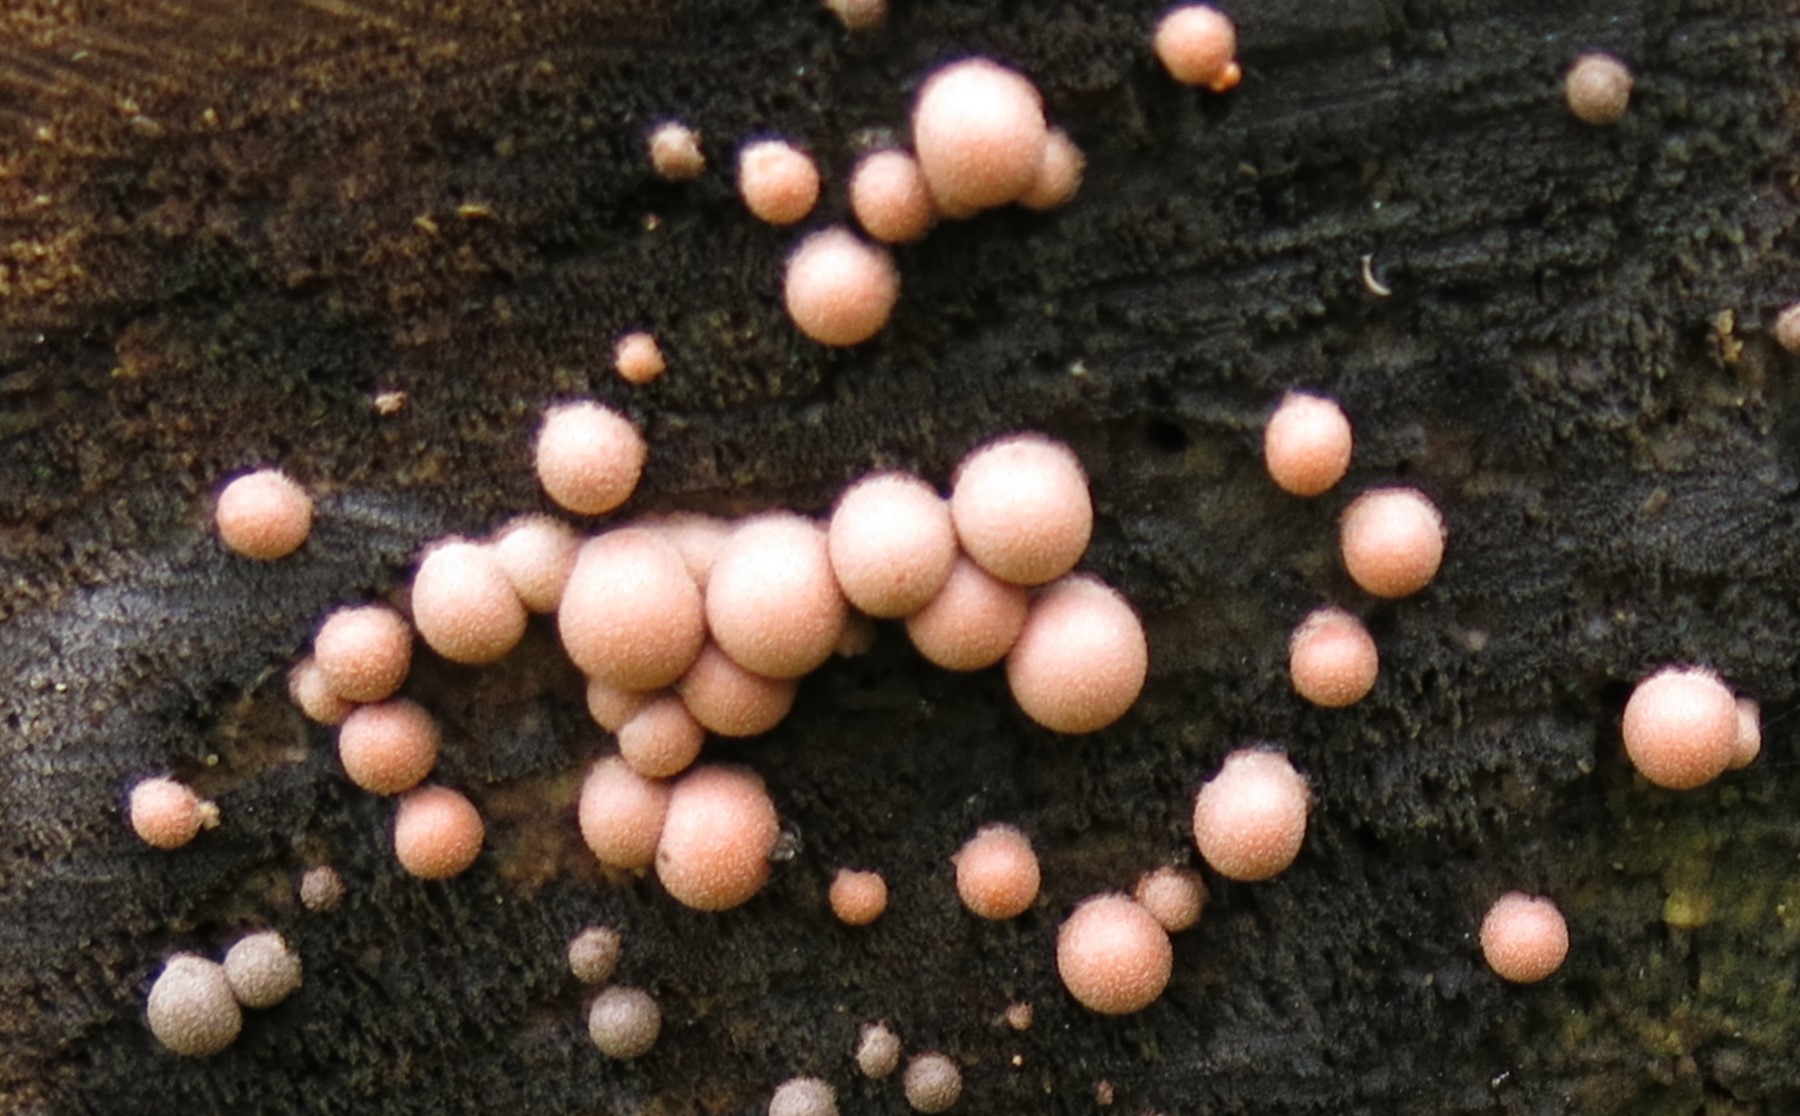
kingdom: Protozoa
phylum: Mycetozoa
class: Myxomycetes
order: Cribrariales
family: Tubiferaceae
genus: Lycogala
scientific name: Lycogala epidendrum
